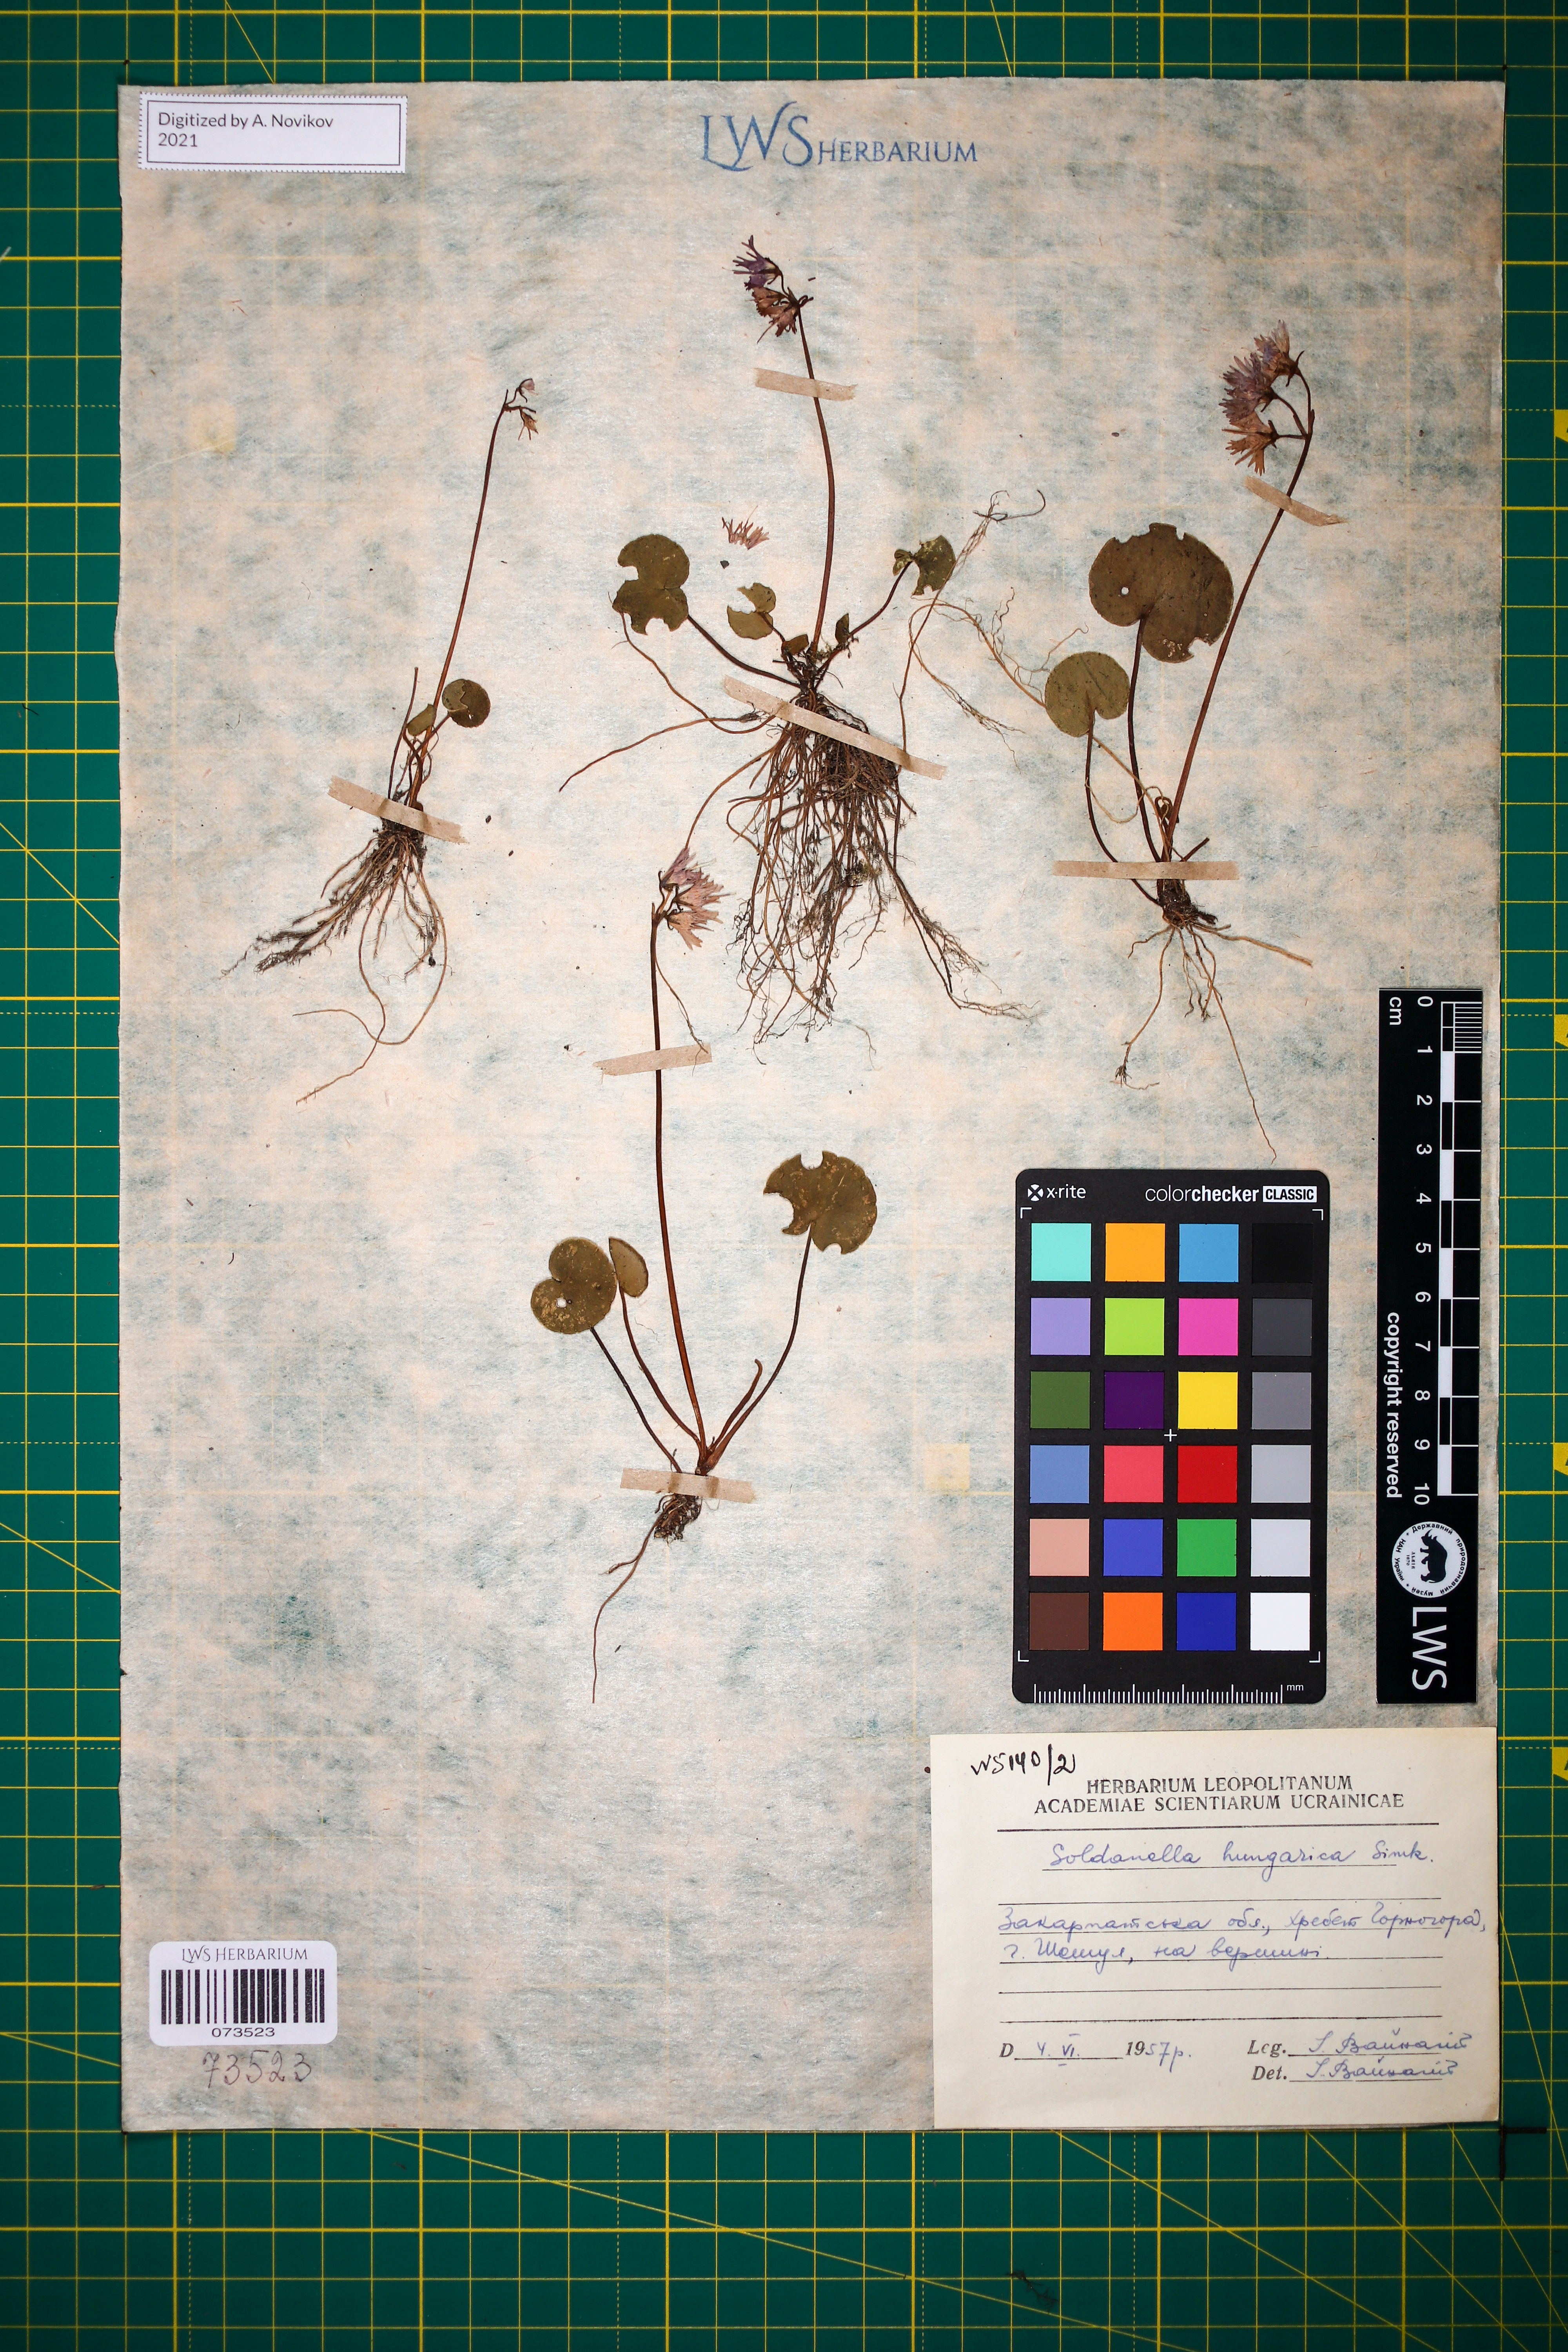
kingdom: Plantae
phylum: Tracheophyta
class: Magnoliopsida
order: Ericales
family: Primulaceae
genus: Soldanella
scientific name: Soldanella hungarica
